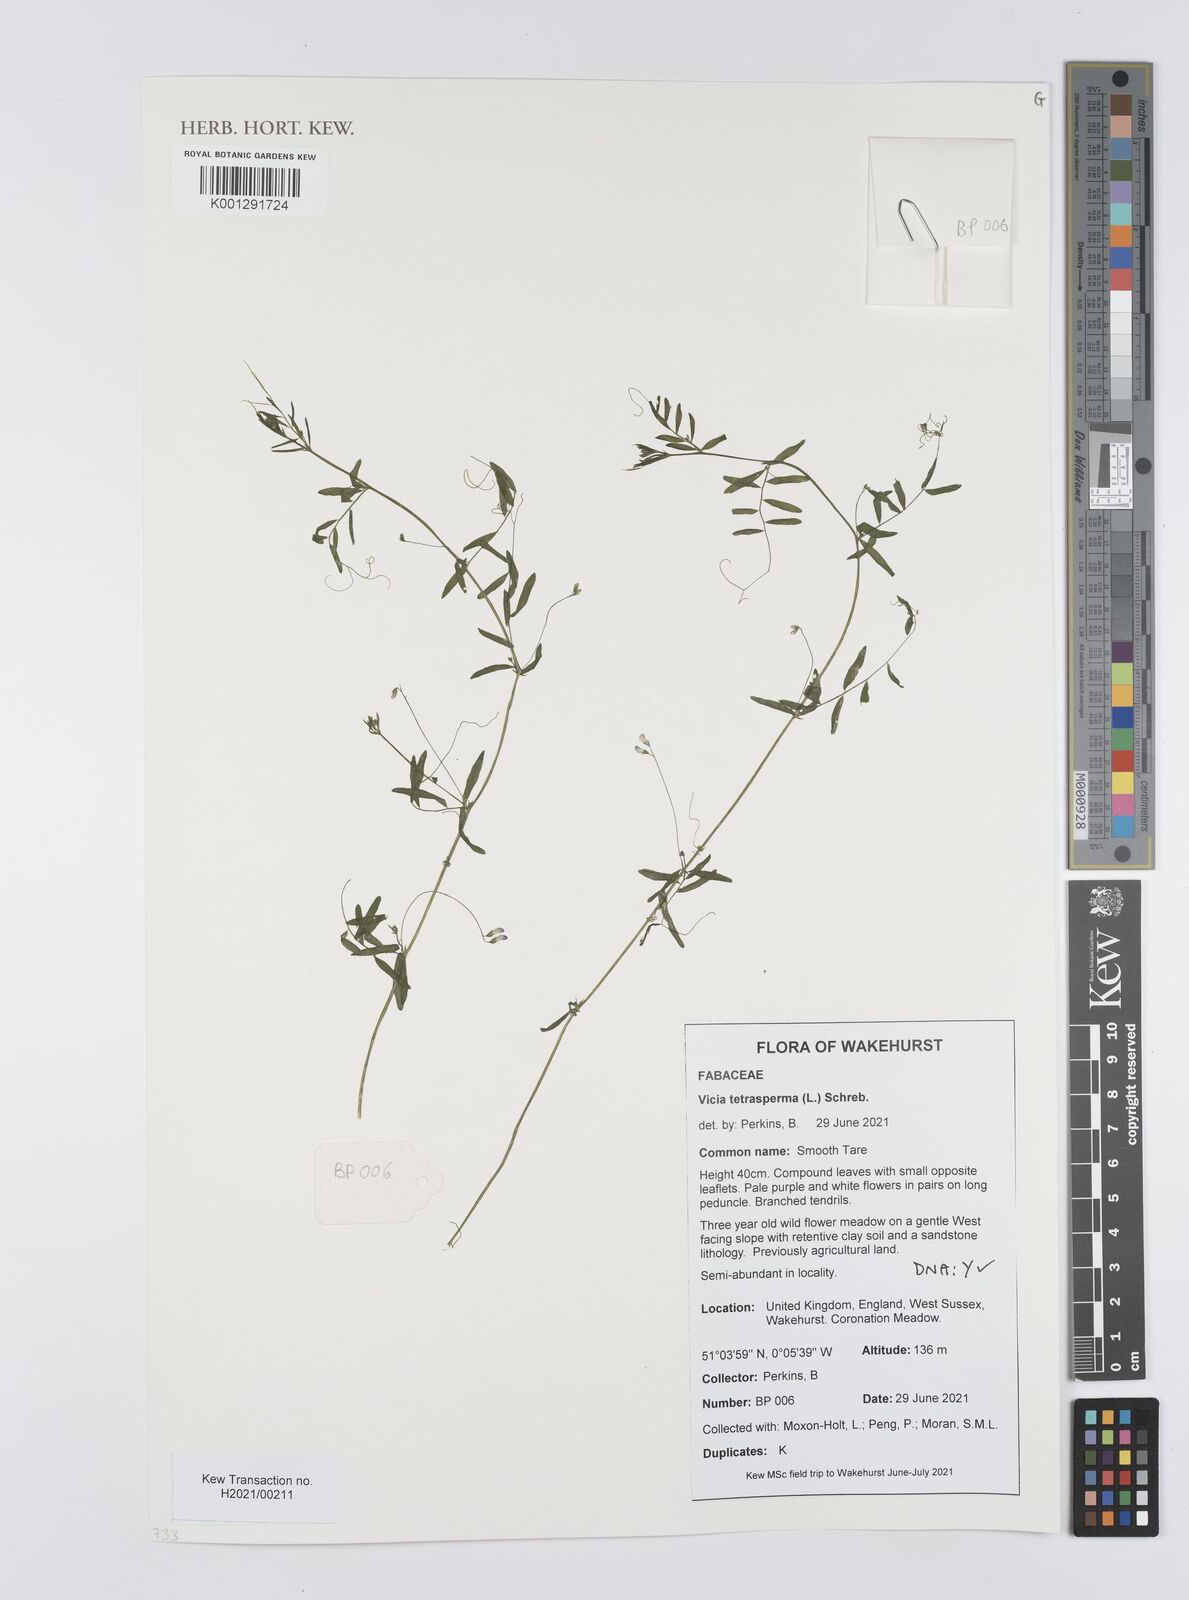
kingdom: Plantae
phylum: Tracheophyta
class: Magnoliopsida
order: Fabales
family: Fabaceae
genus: Vicia
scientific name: Vicia tetrasperma
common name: Smooth tare
